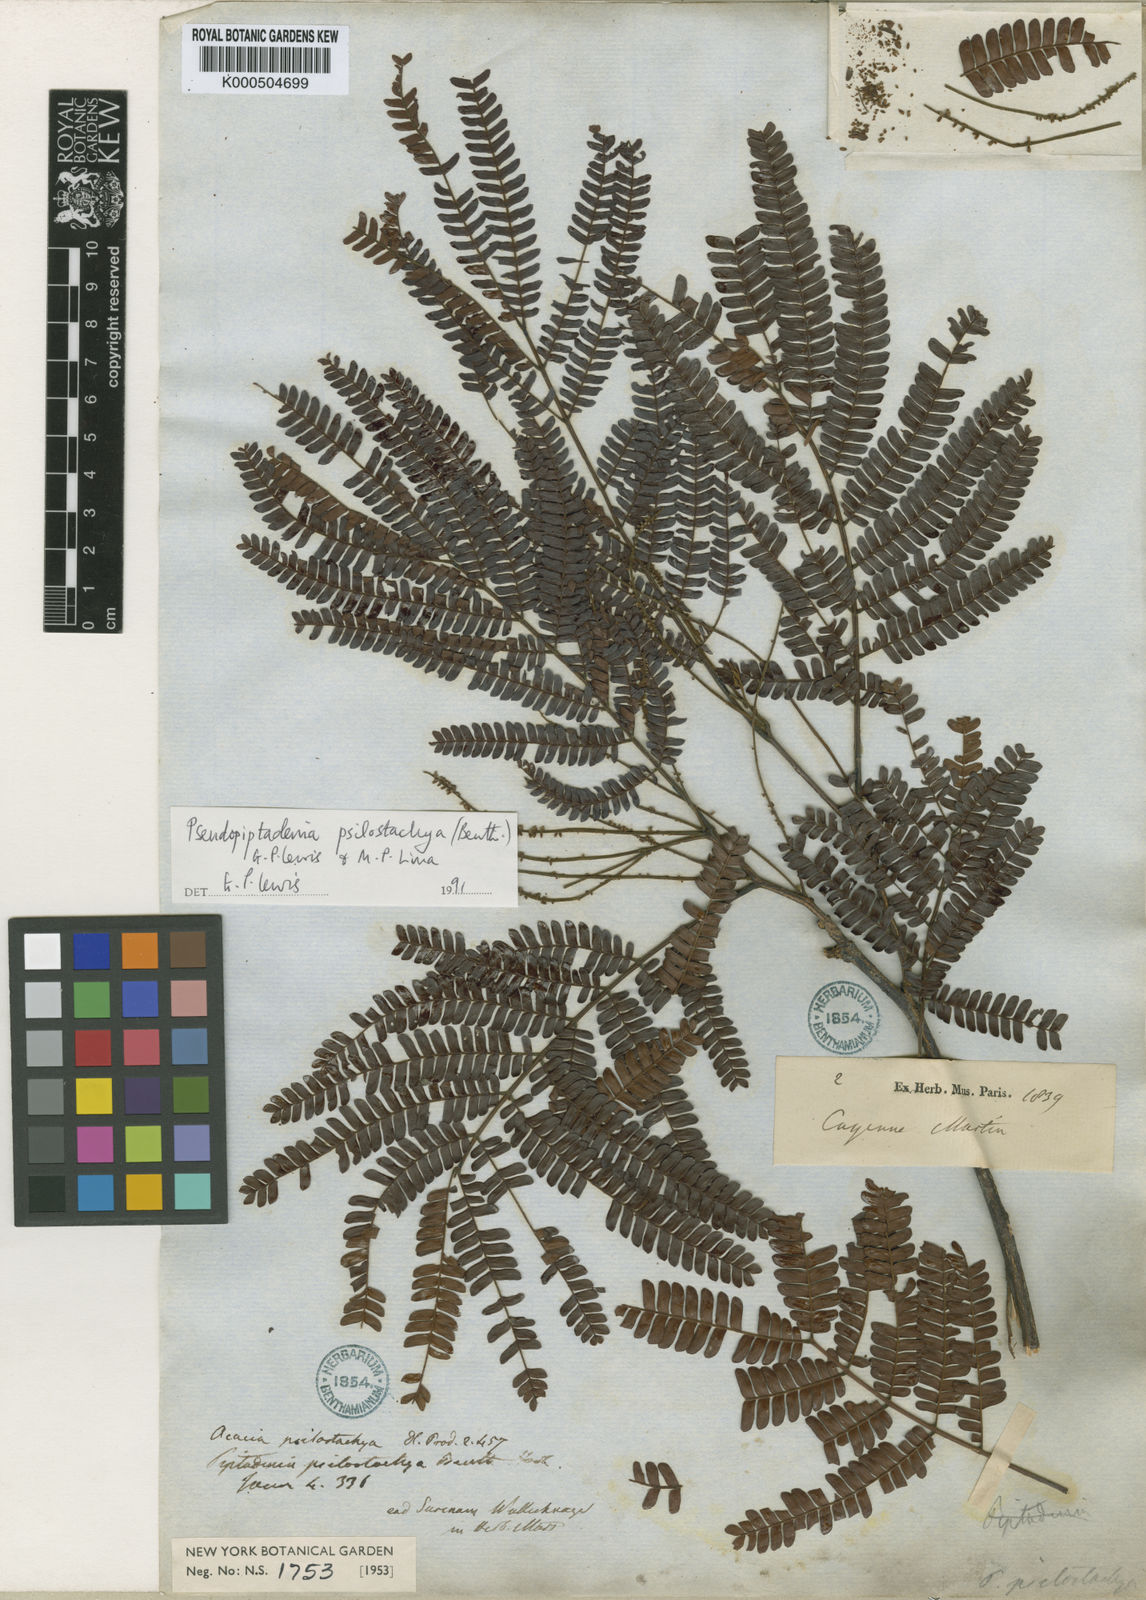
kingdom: Plantae
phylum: Tracheophyta
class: Magnoliopsida
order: Fabales
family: Fabaceae
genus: Pseudopiptadenia
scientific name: Pseudopiptadenia psilostachya
